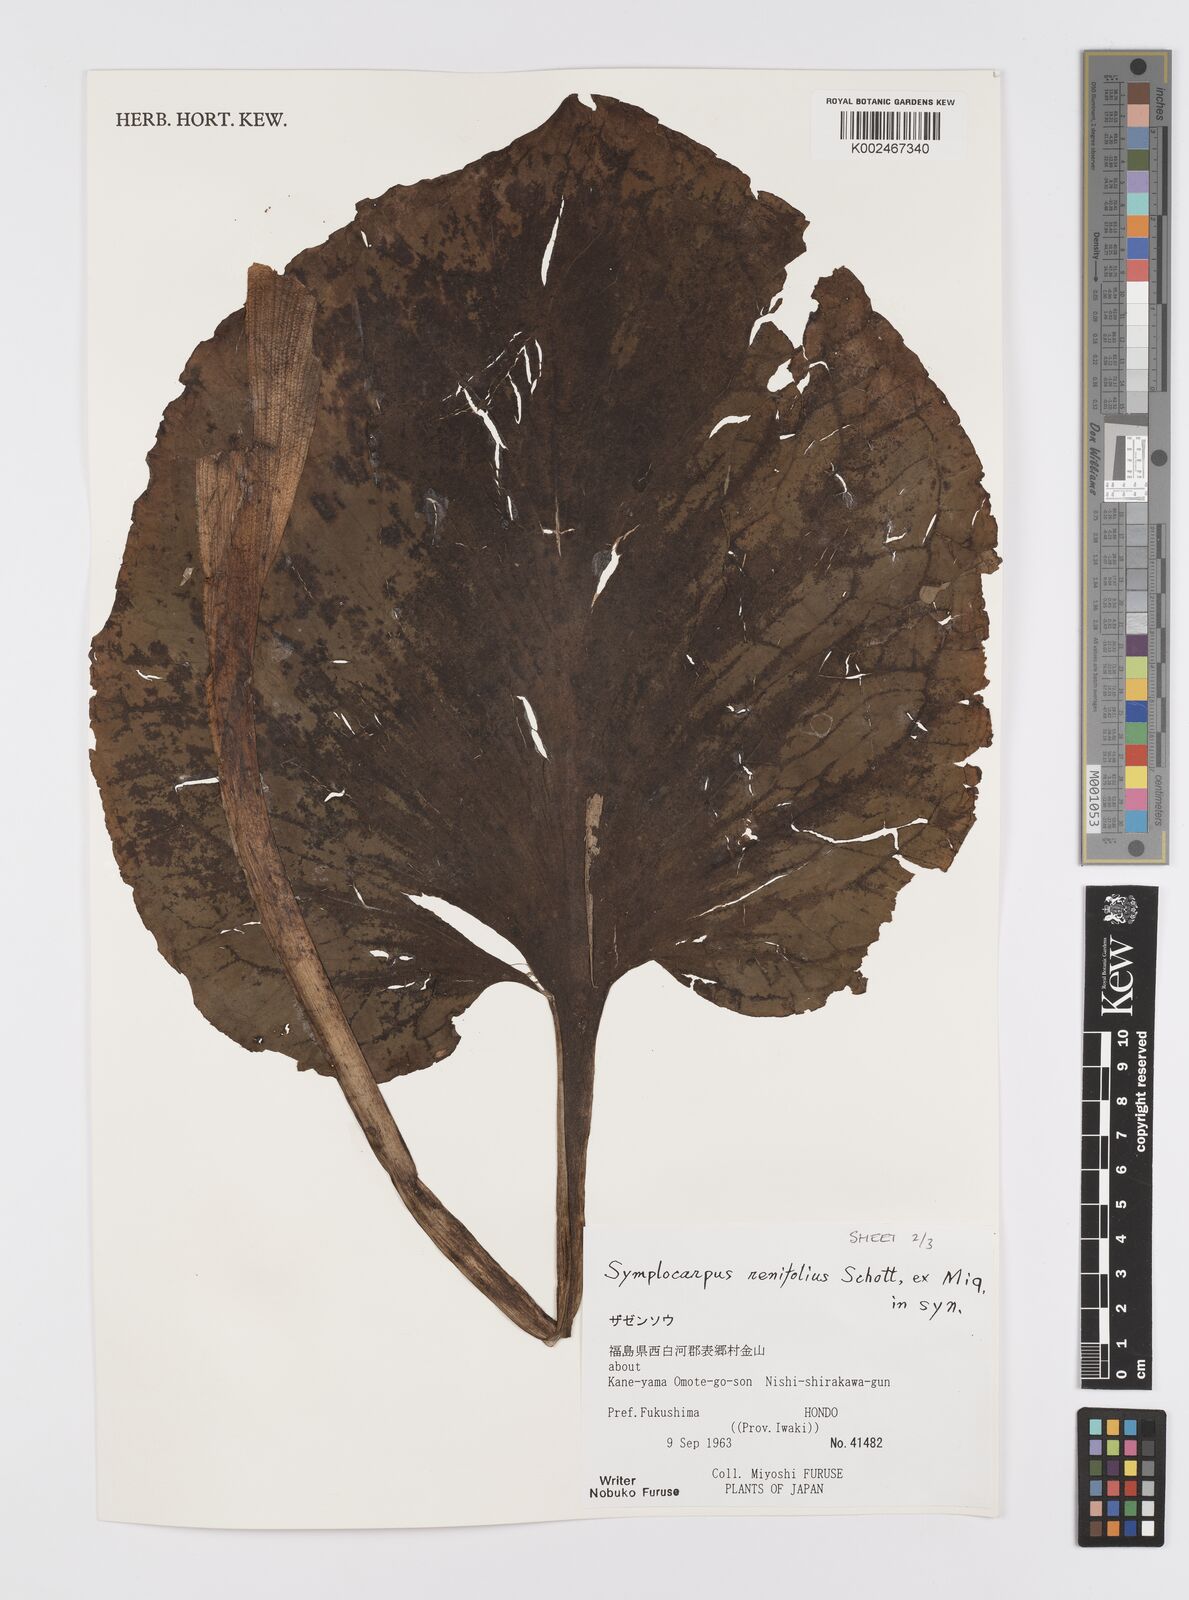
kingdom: Plantae
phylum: Tracheophyta
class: Liliopsida
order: Alismatales
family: Araceae
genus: Symplocarpus
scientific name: Symplocarpus renifolius
